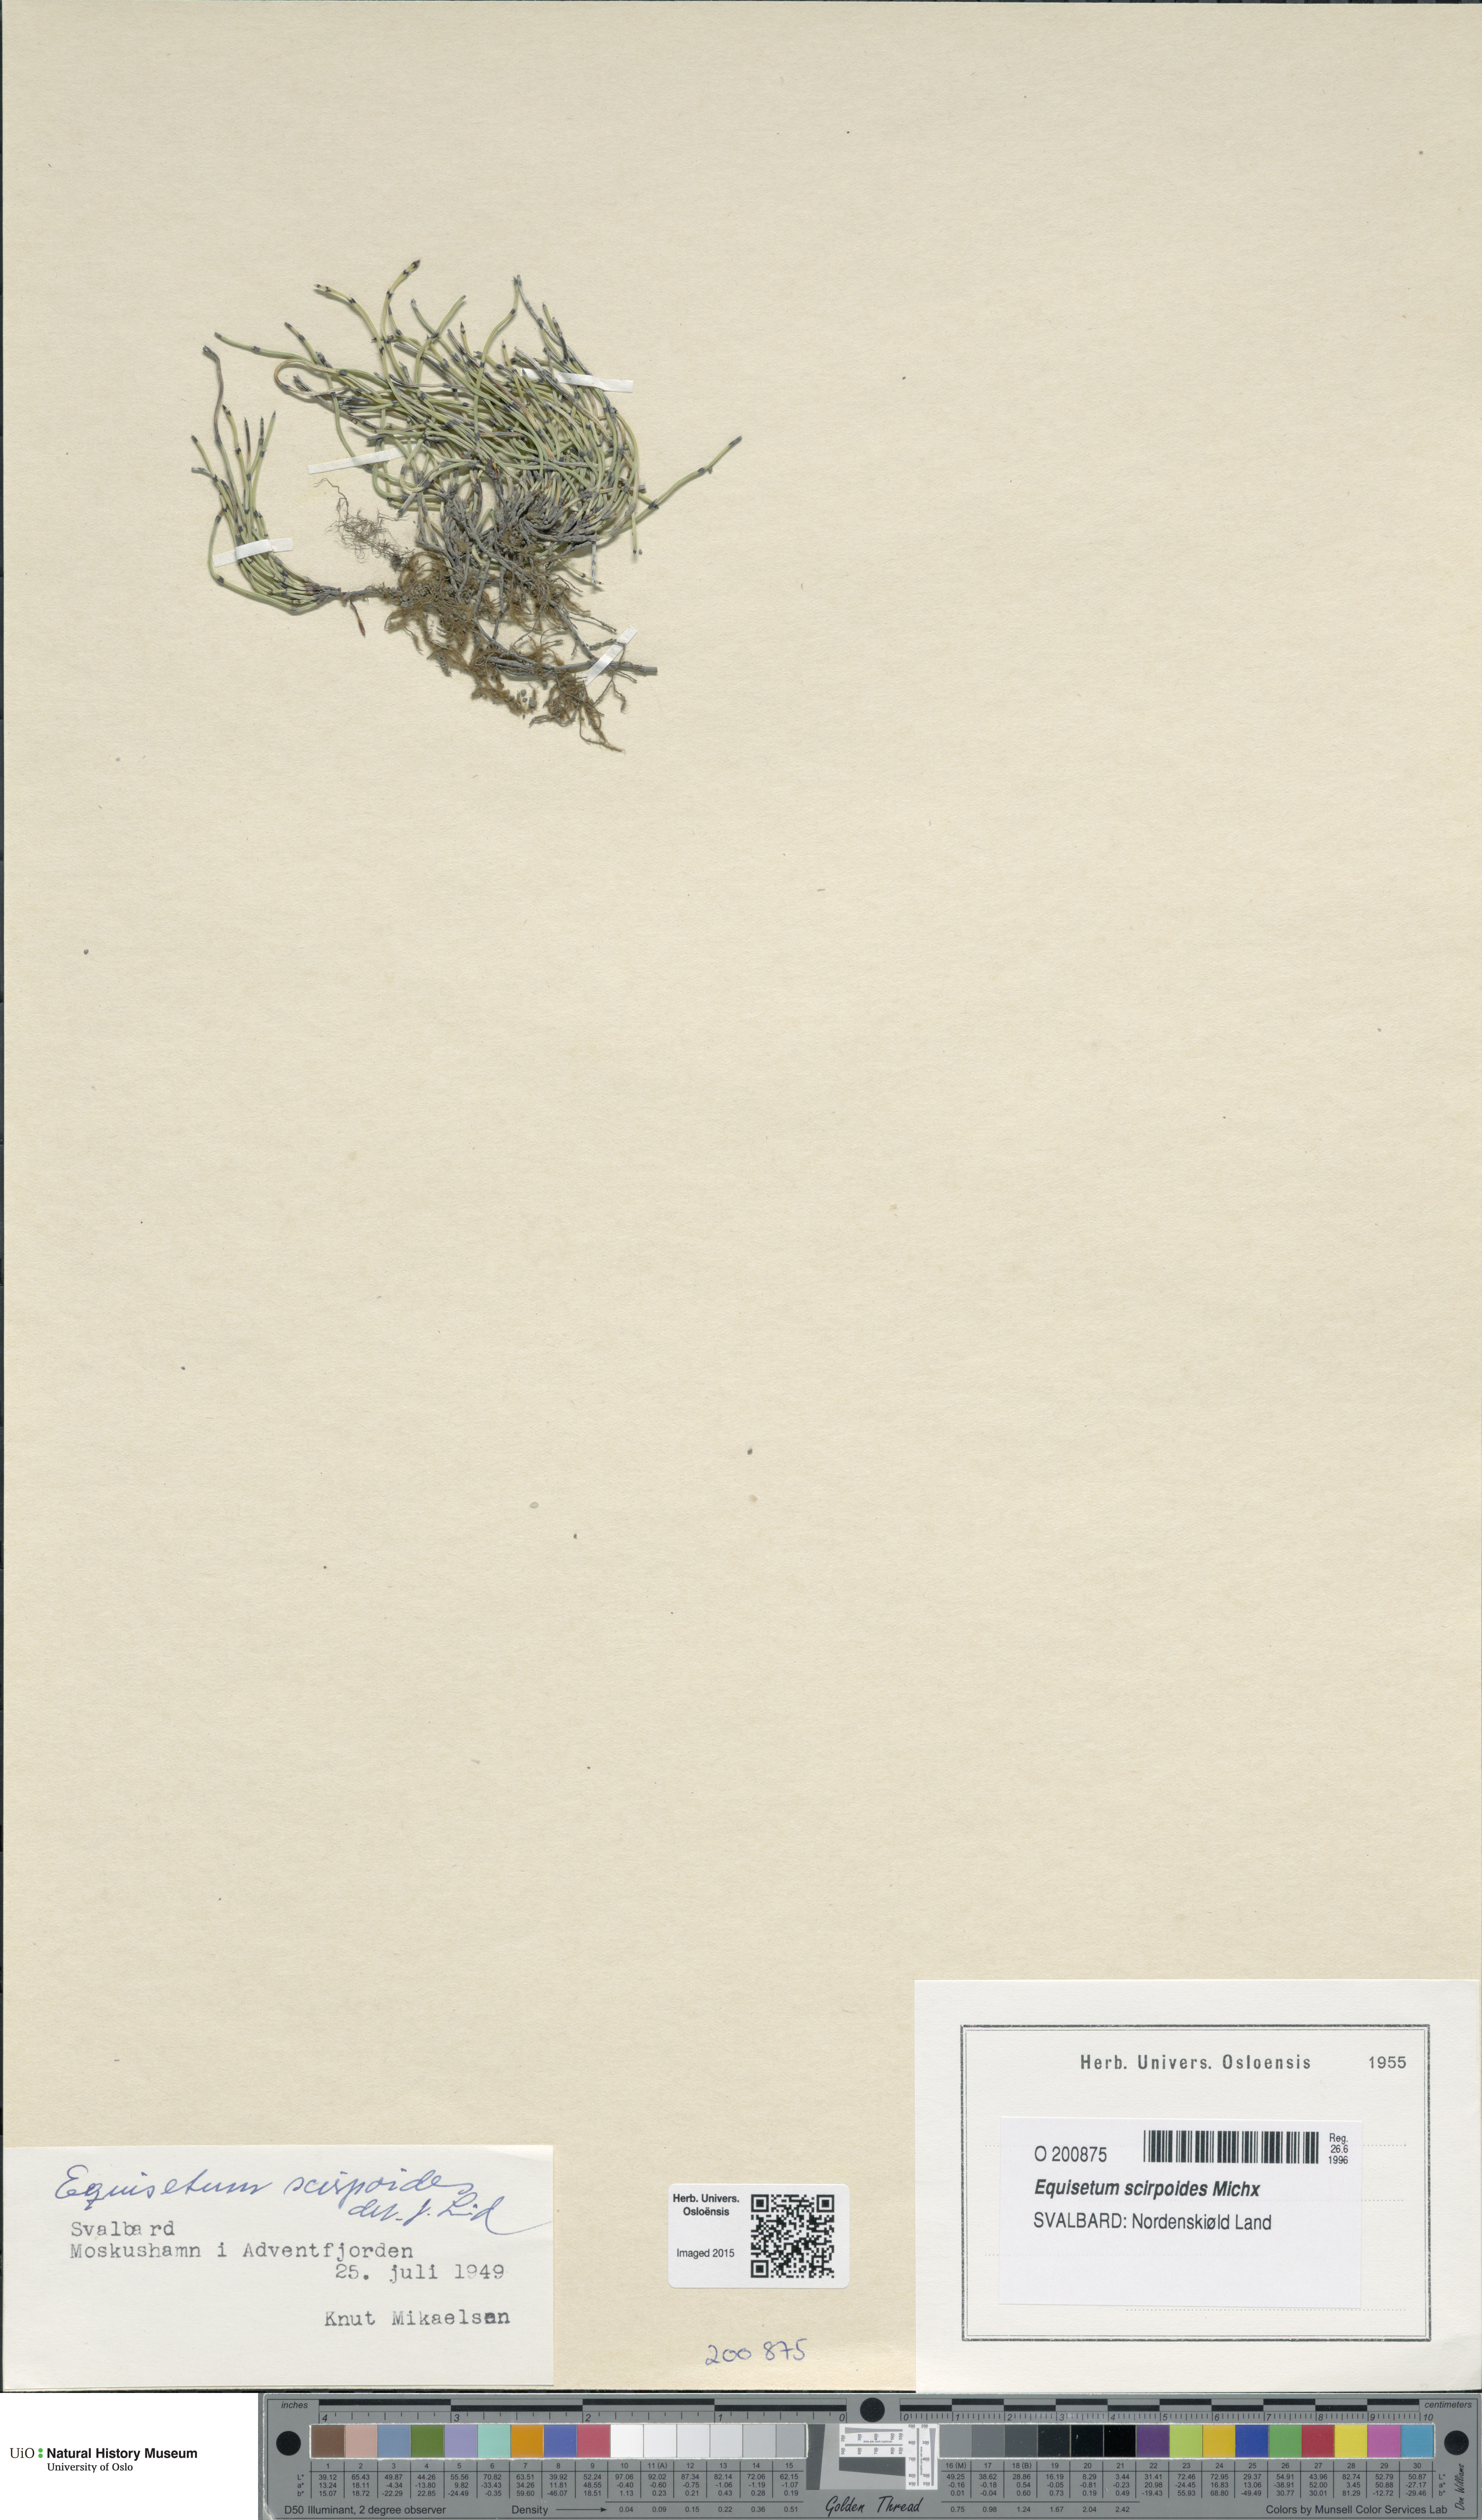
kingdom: Plantae
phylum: Tracheophyta
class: Polypodiopsida
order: Equisetales
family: Equisetaceae
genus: Equisetum
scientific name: Equisetum scirpoides
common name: Delicate horsetail
